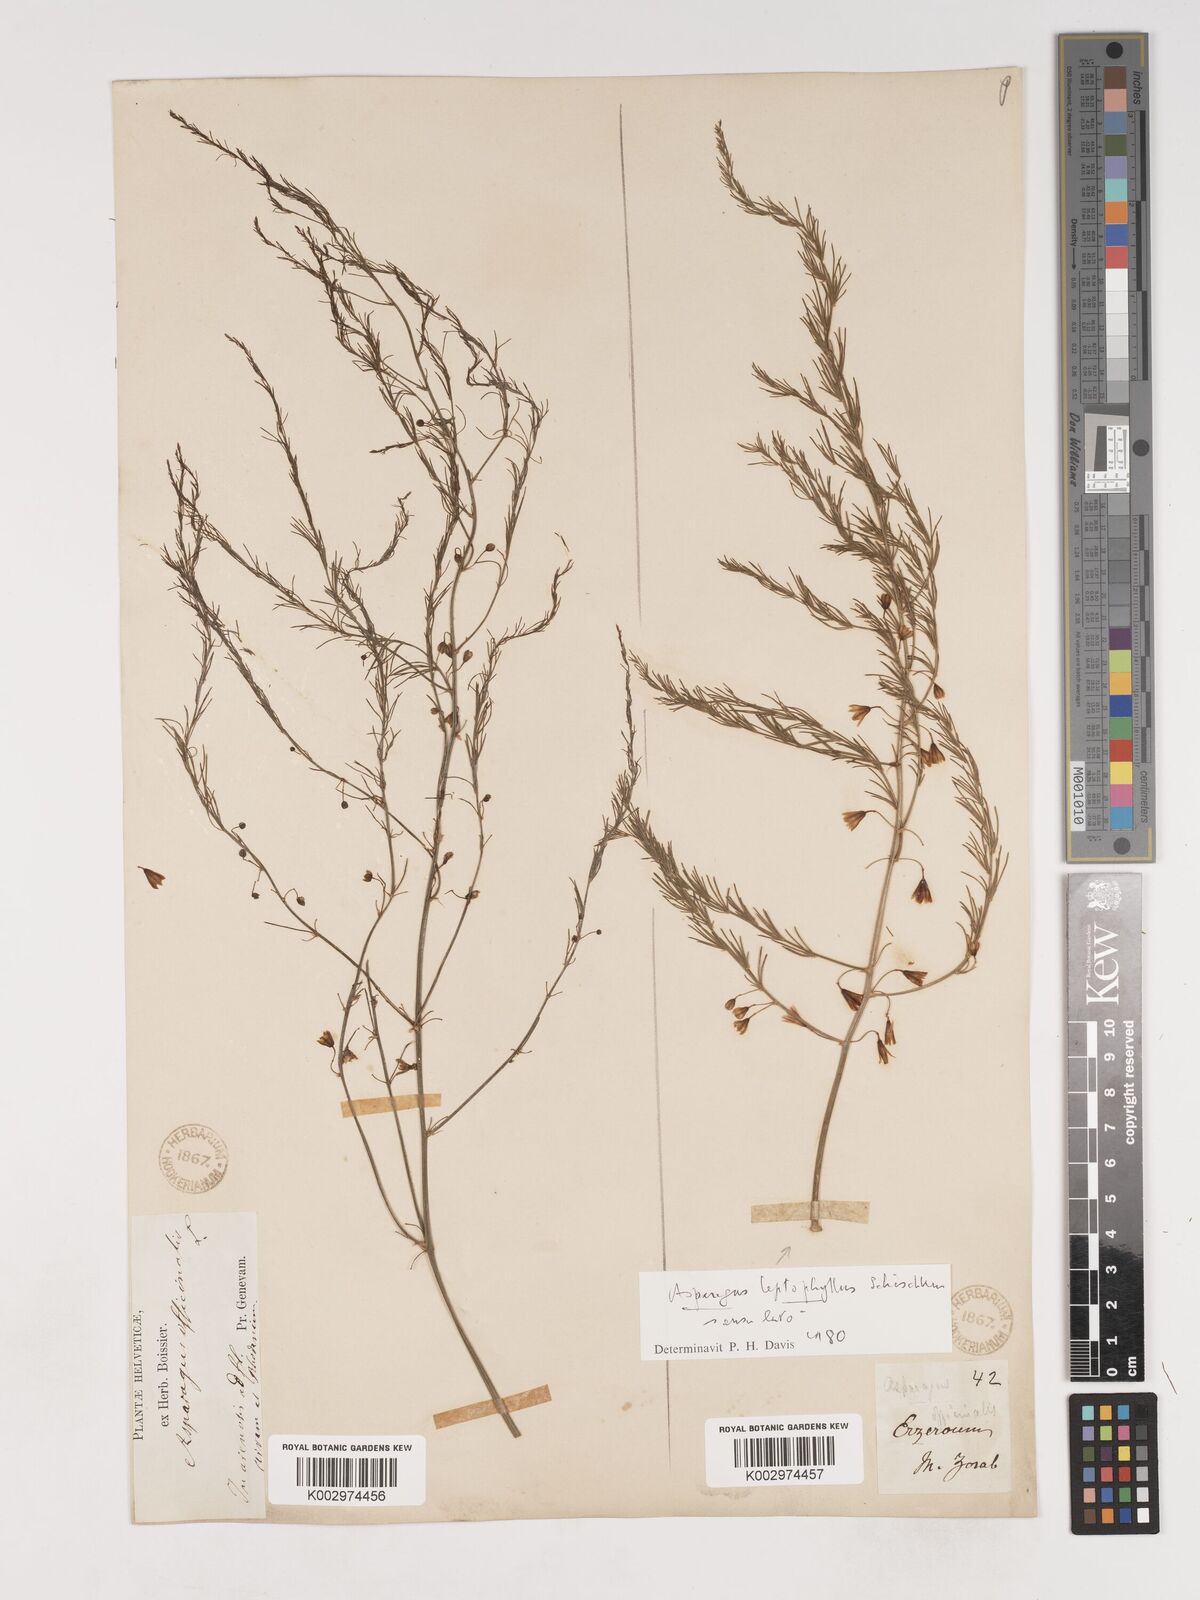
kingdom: Plantae
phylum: Tracheophyta
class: Liliopsida
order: Asparagales
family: Asparagaceae
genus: Asparagus
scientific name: Asparagus persicus
